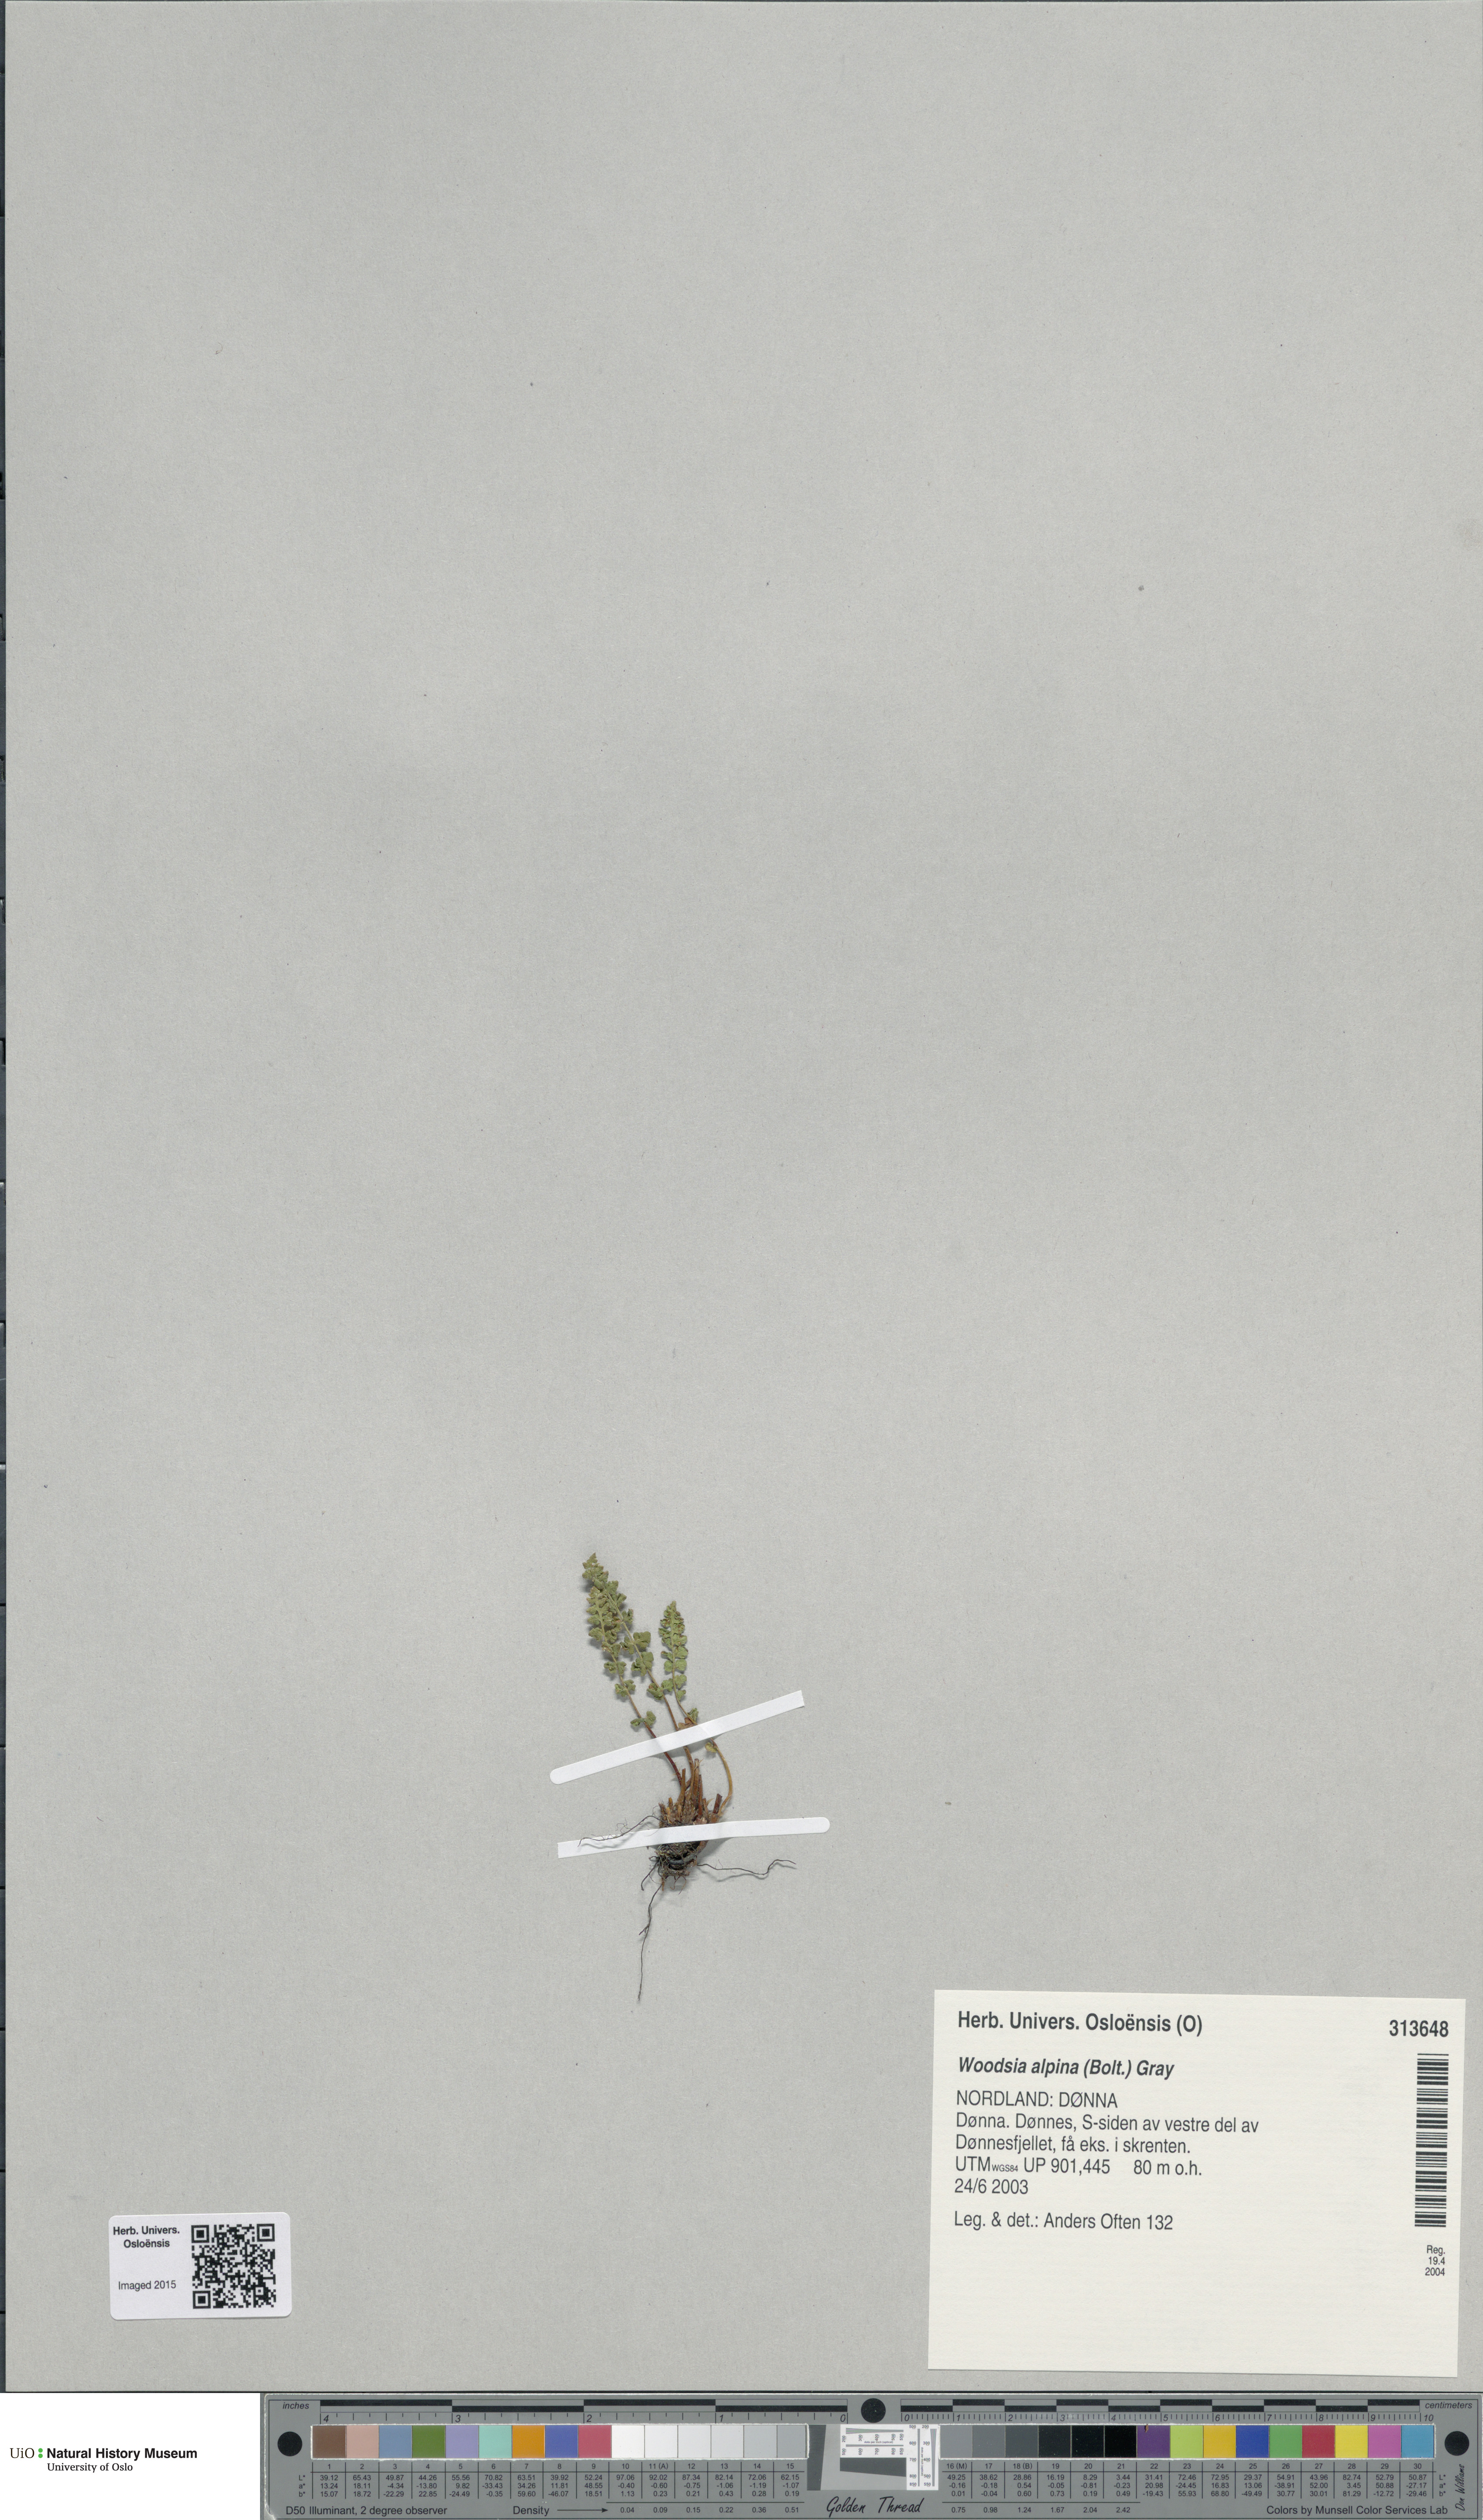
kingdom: Plantae
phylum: Tracheophyta
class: Polypodiopsida
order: Polypodiales
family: Woodsiaceae
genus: Woodsia
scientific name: Woodsia alpina
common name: Alpine woodsia
